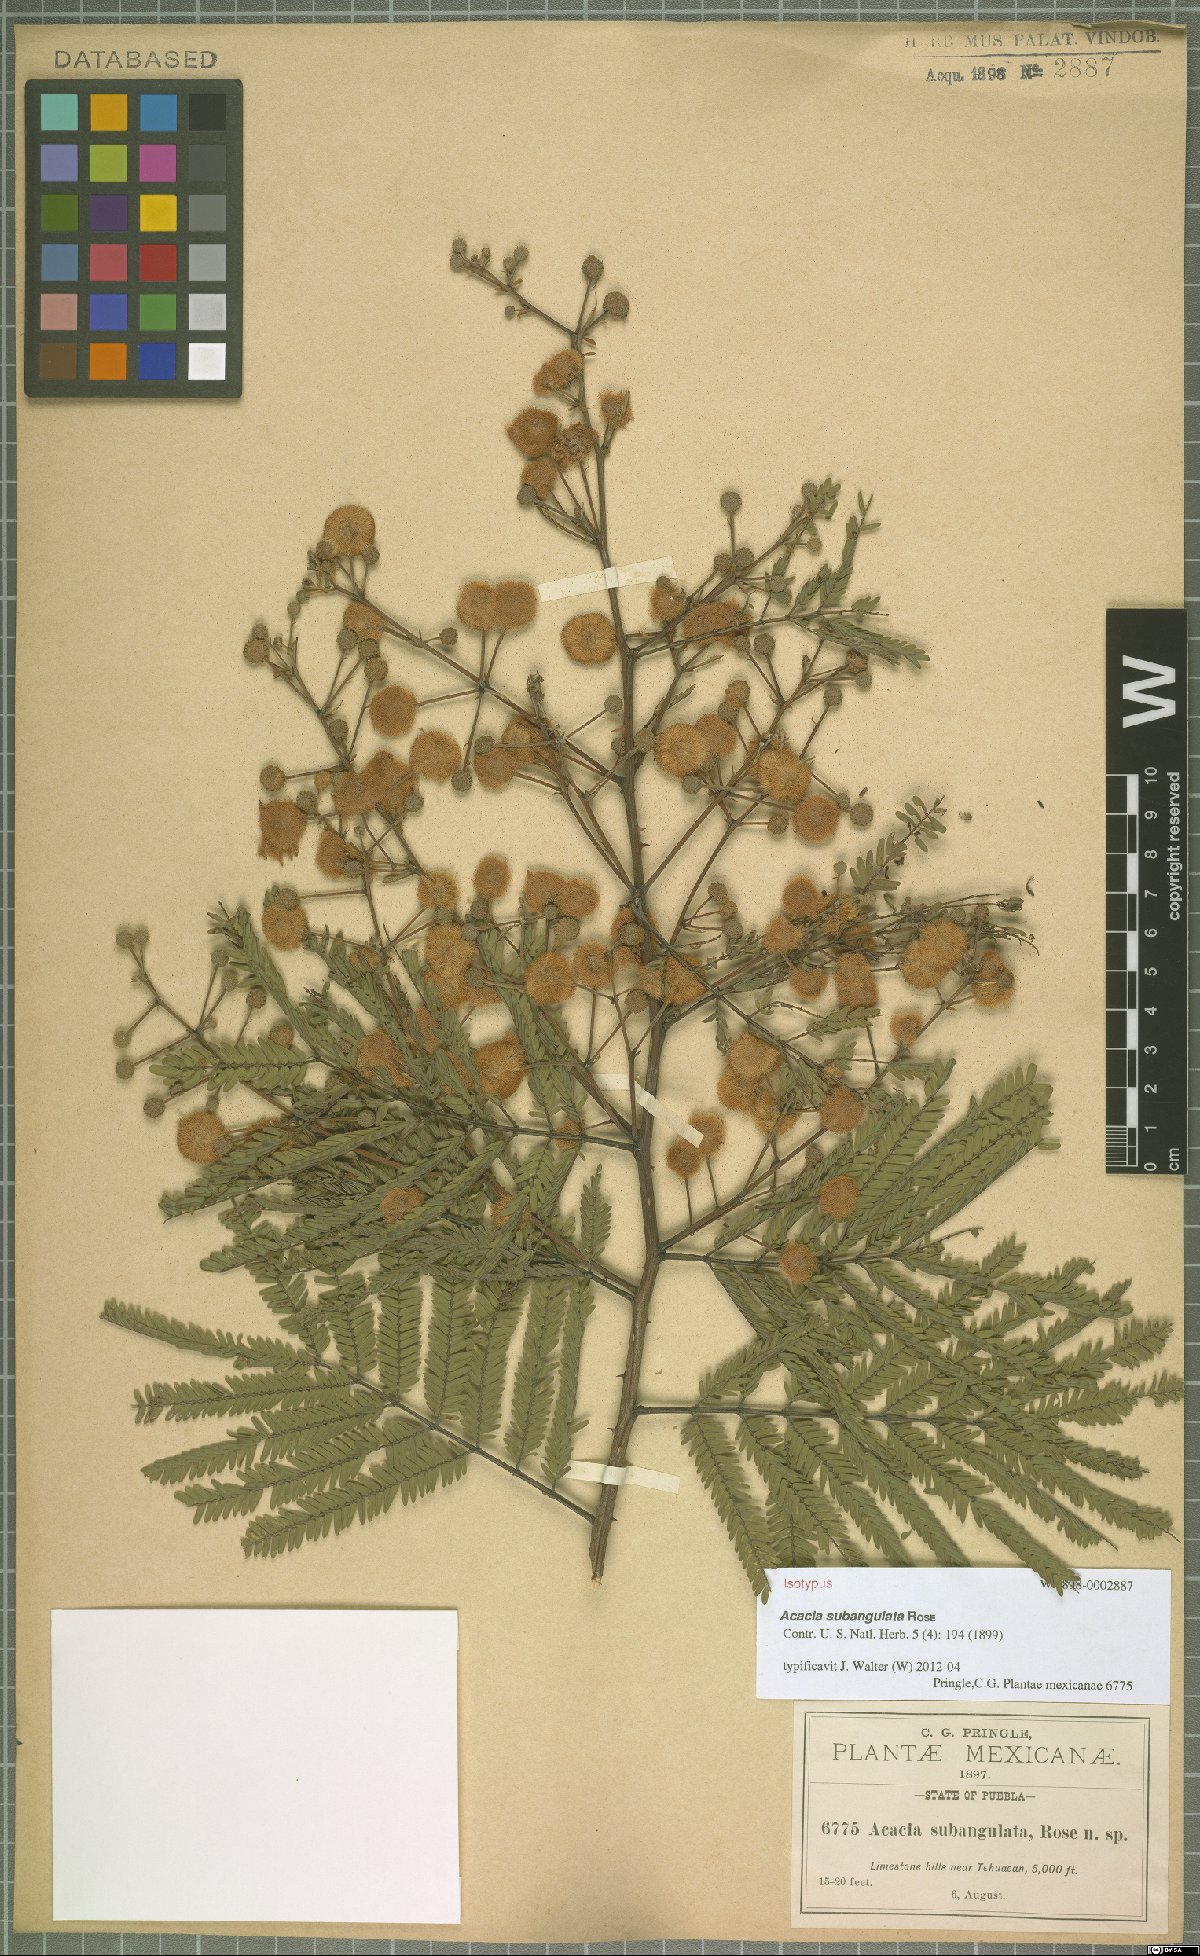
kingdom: Plantae
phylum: Tracheophyta
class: Magnoliopsida
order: Fabales
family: Fabaceae
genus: Senegalia
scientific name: Senegalia subangulata
